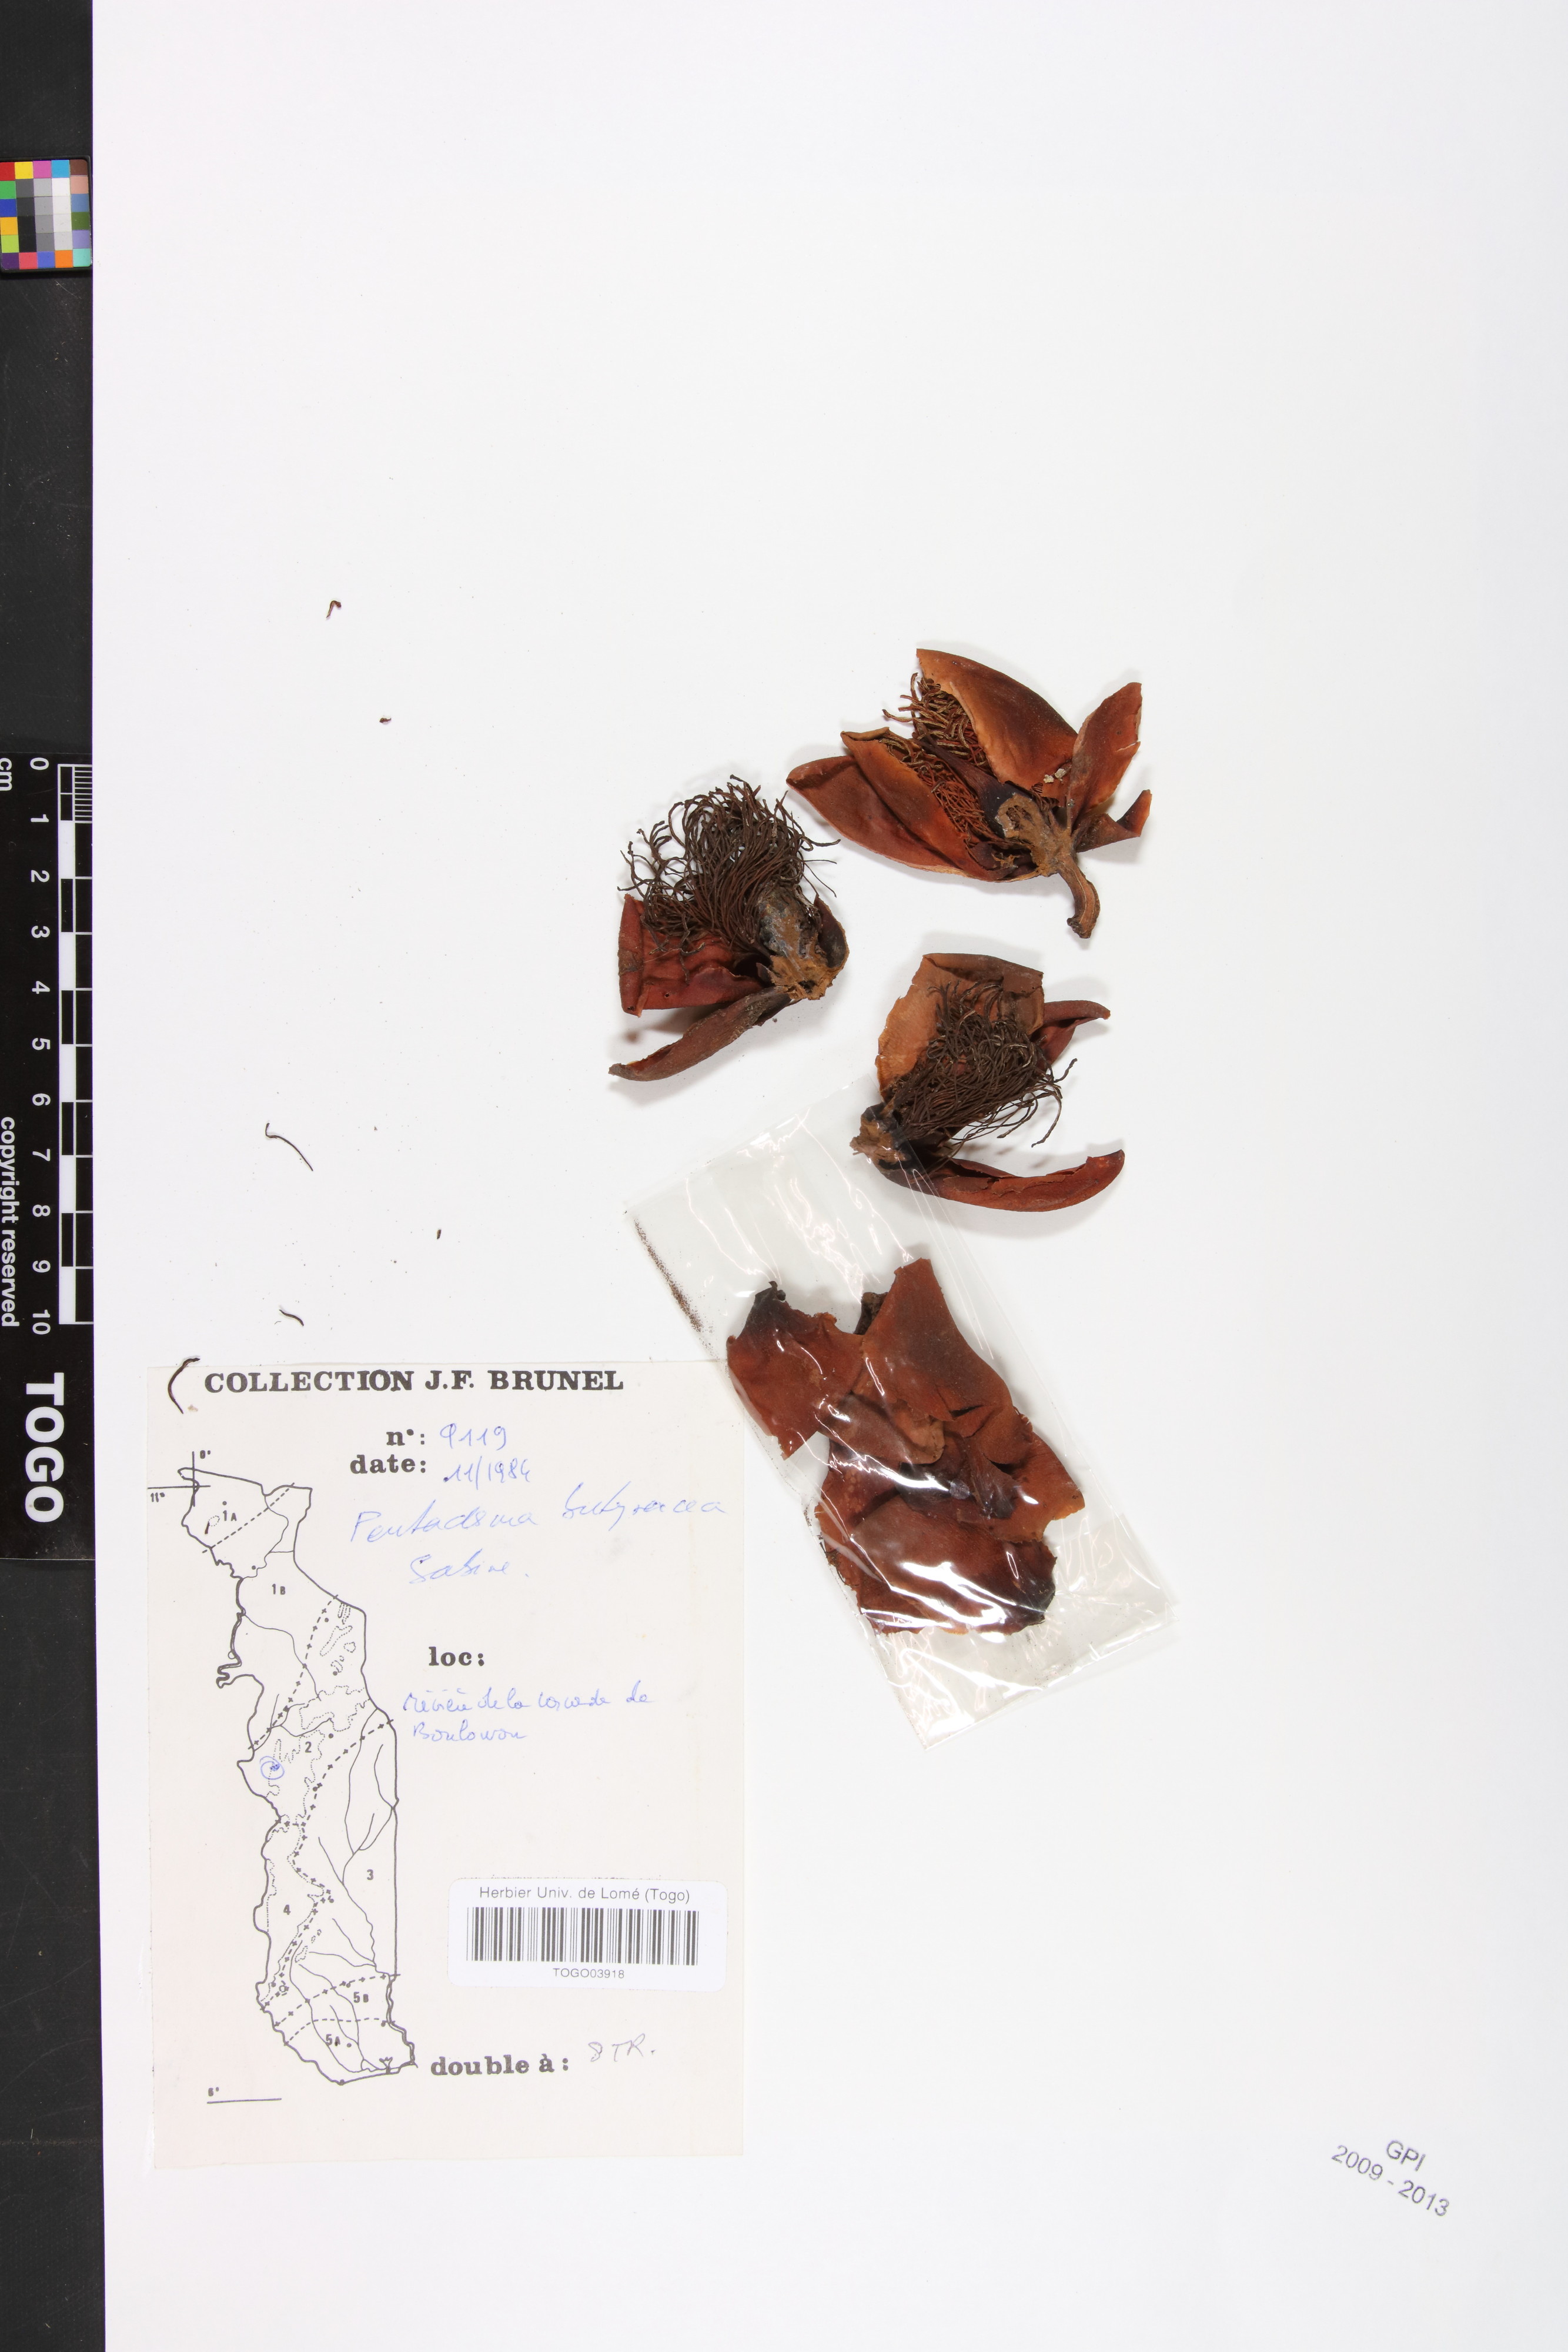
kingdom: Plantae
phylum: Tracheophyta
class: Magnoliopsida
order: Malpighiales
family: Clusiaceae
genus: Pentadesma
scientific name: Pentadesma butyracea
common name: Buttertree
